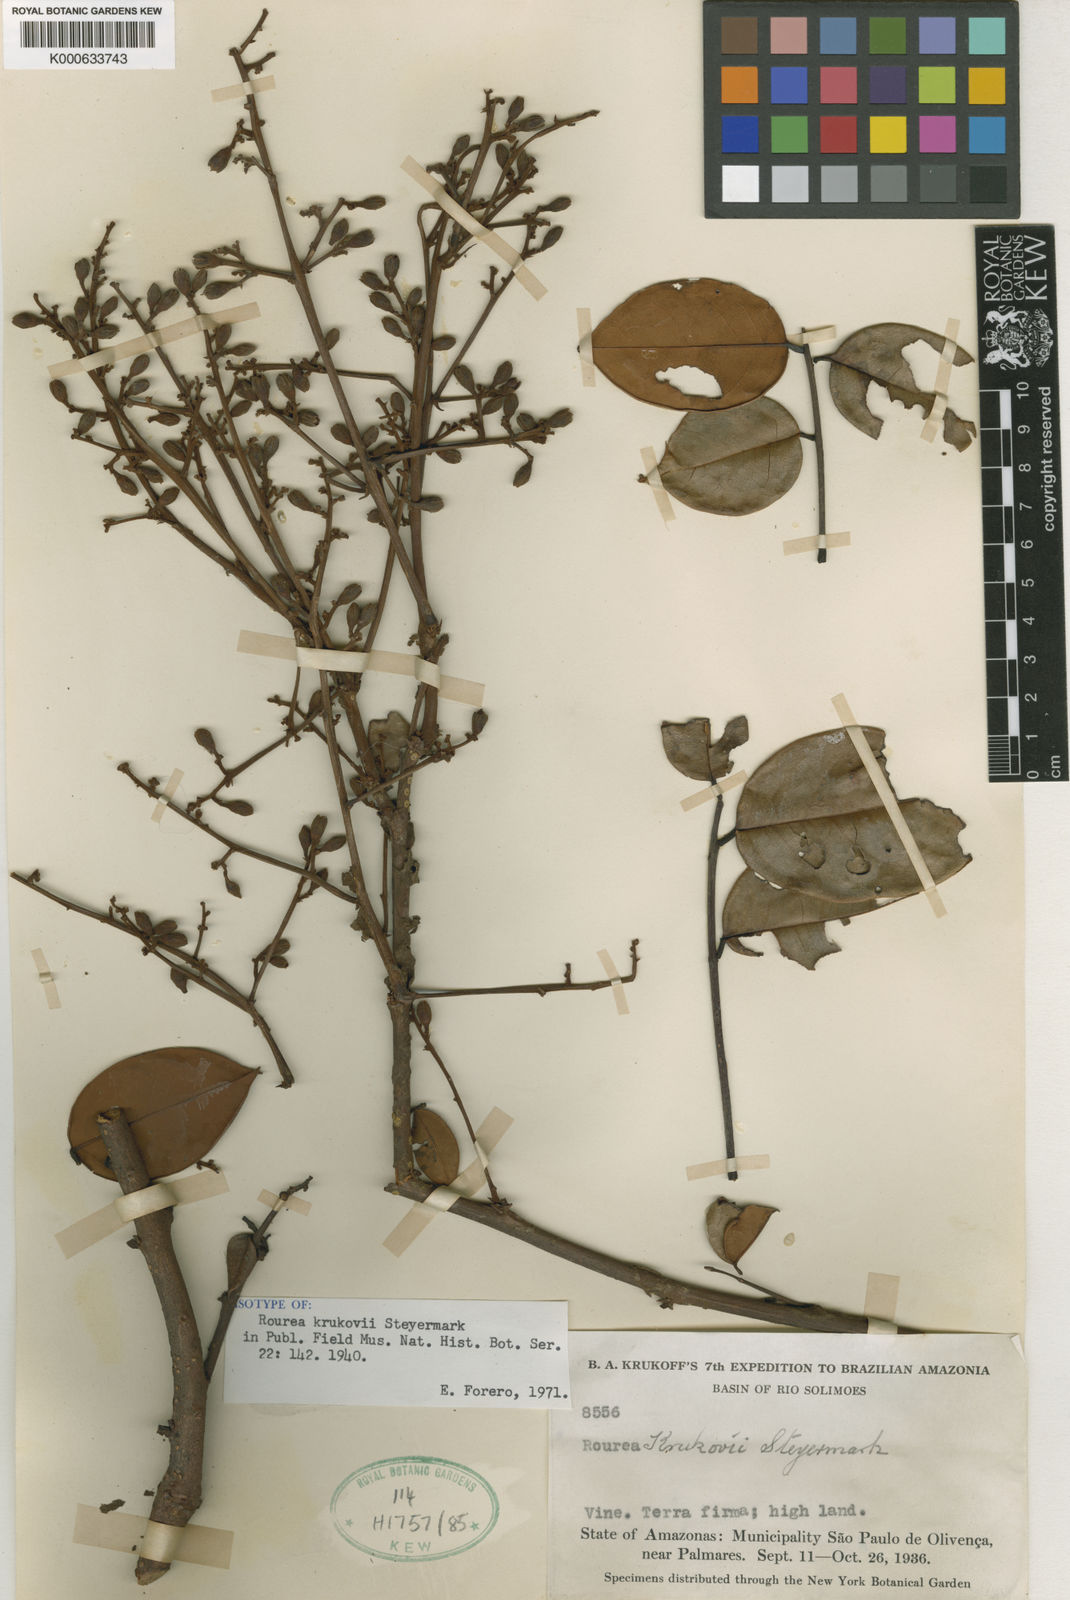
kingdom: Plantae
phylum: Tracheophyta
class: Magnoliopsida
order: Oxalidales
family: Connaraceae
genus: Rourea
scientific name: Rourea krukovii
